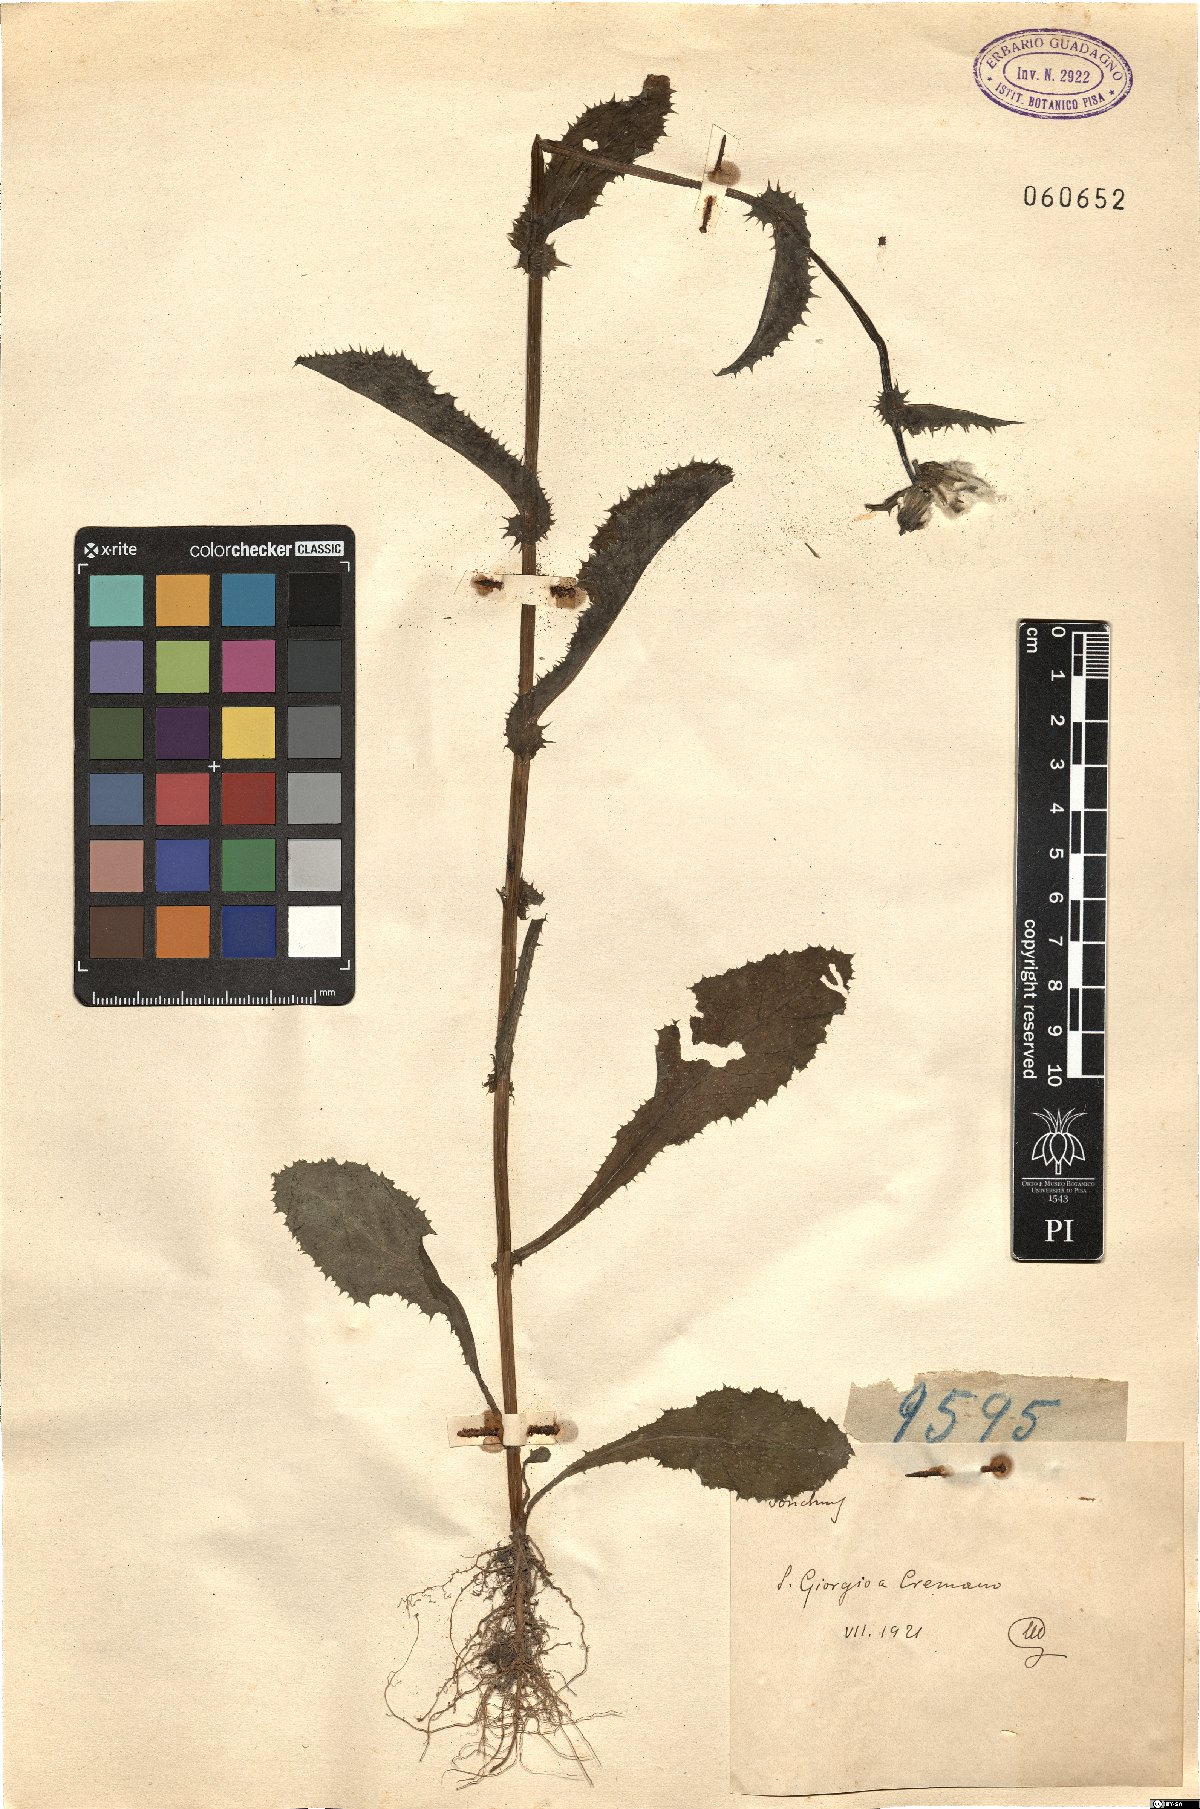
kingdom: Plantae
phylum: Tracheophyta
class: Magnoliopsida
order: Asterales
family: Asteraceae
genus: Sonchus
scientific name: Sonchus
